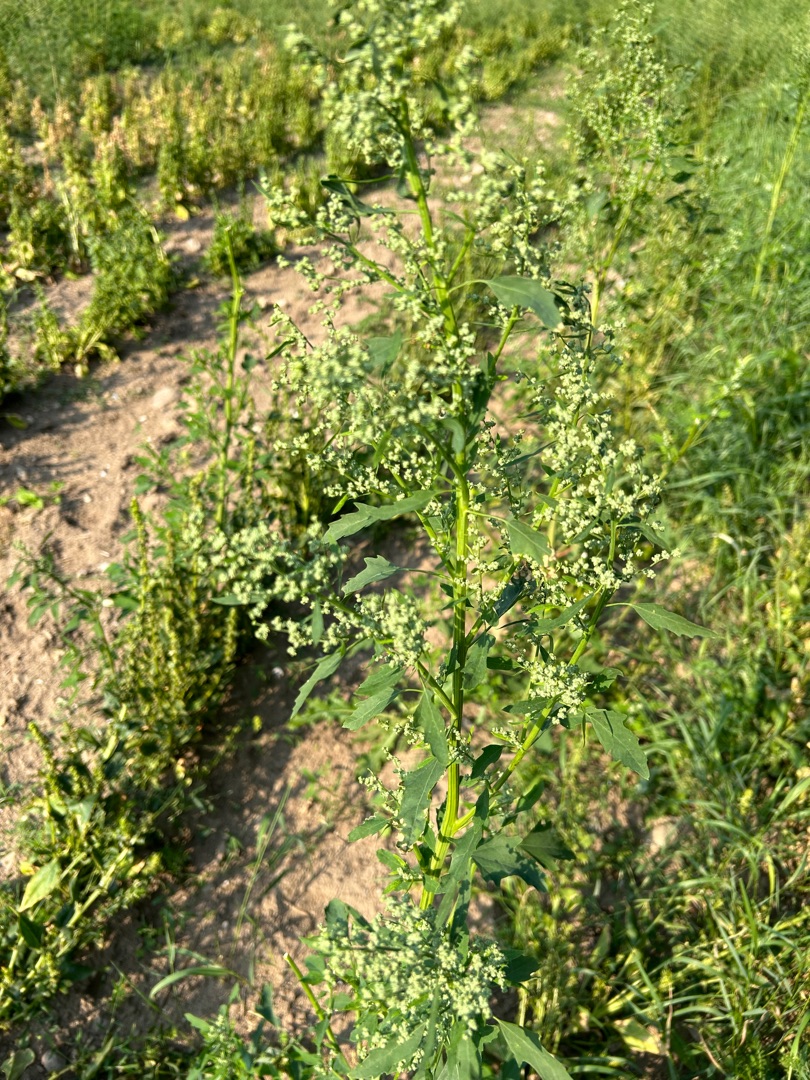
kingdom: Plantae
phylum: Tracheophyta
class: Magnoliopsida
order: Caryophyllales
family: Amaranthaceae
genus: Chenopodium
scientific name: Chenopodium album
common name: Hvidmelet gåsefod
